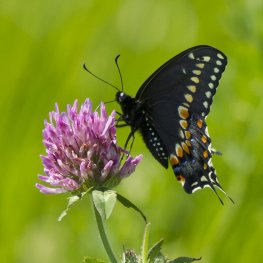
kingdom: Animalia
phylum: Arthropoda
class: Insecta
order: Lepidoptera
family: Papilionidae
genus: Papilio
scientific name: Papilio polyxenes
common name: Black Swallowtail
